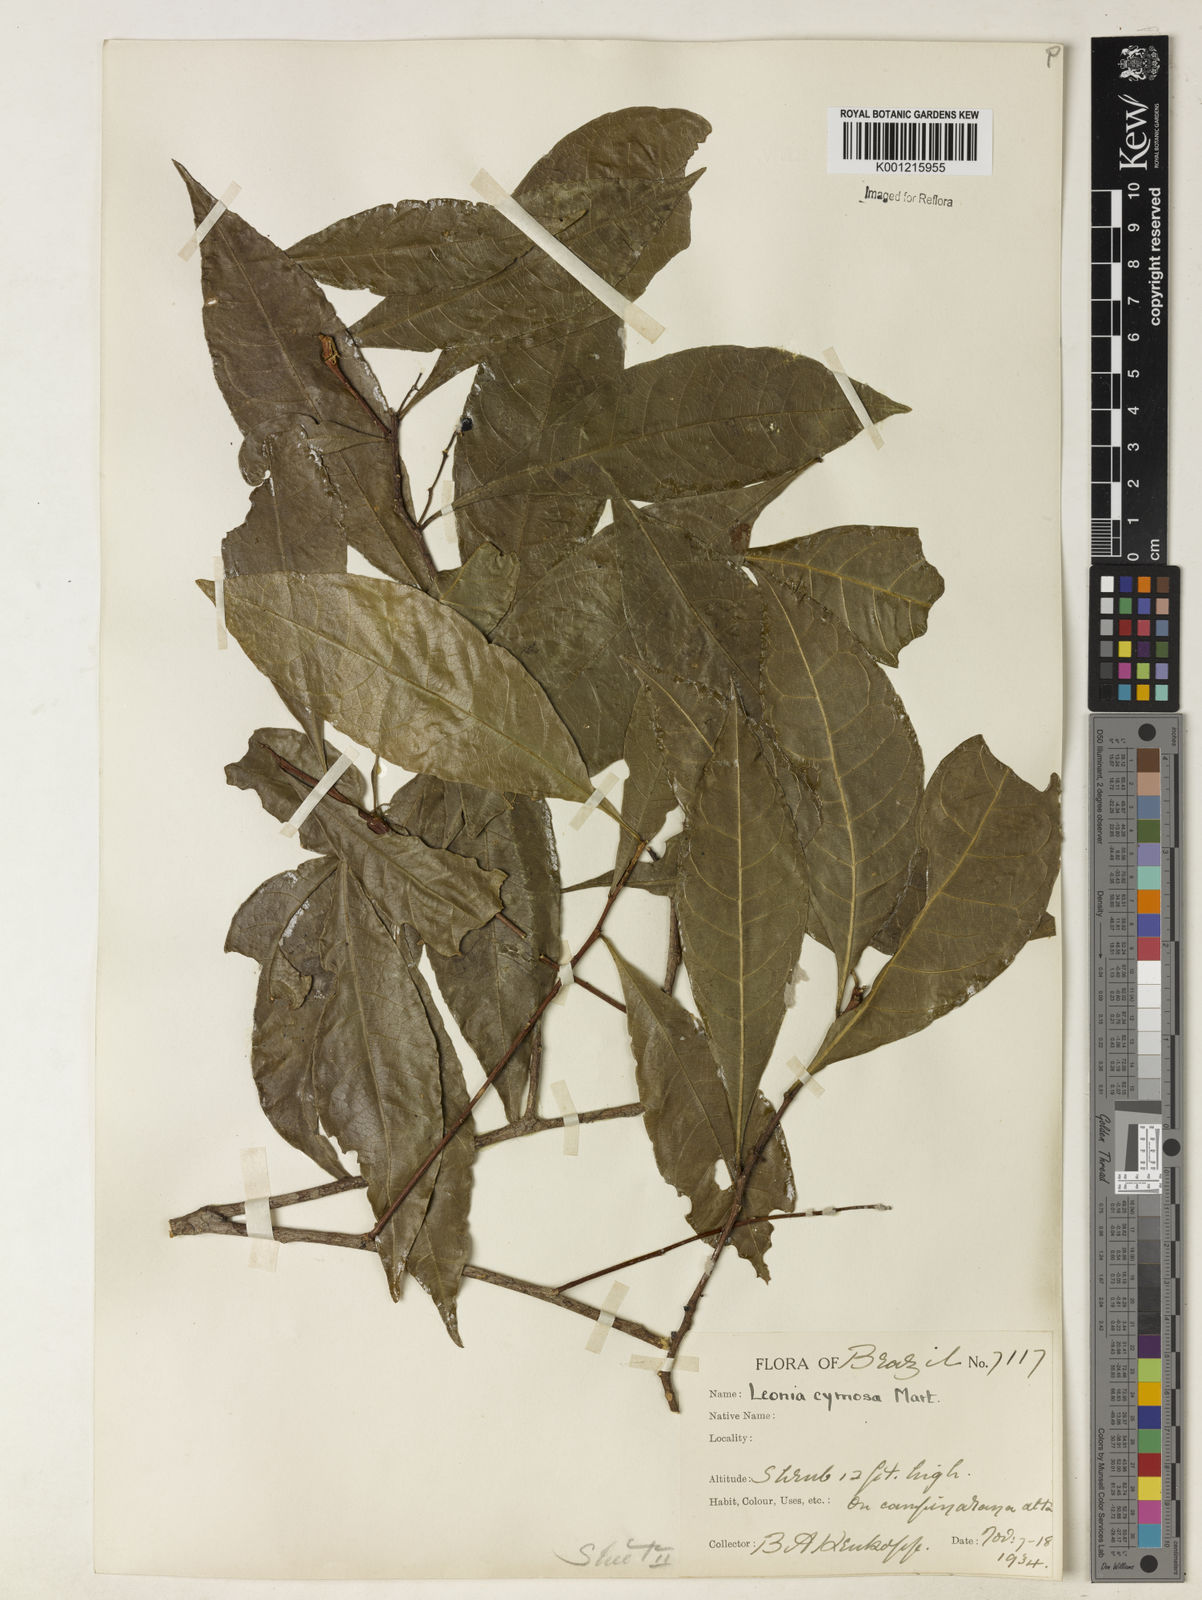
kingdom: Plantae
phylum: Tracheophyta
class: Magnoliopsida
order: Malpighiales
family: Violaceae
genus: Leonia
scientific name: Leonia cymosa
